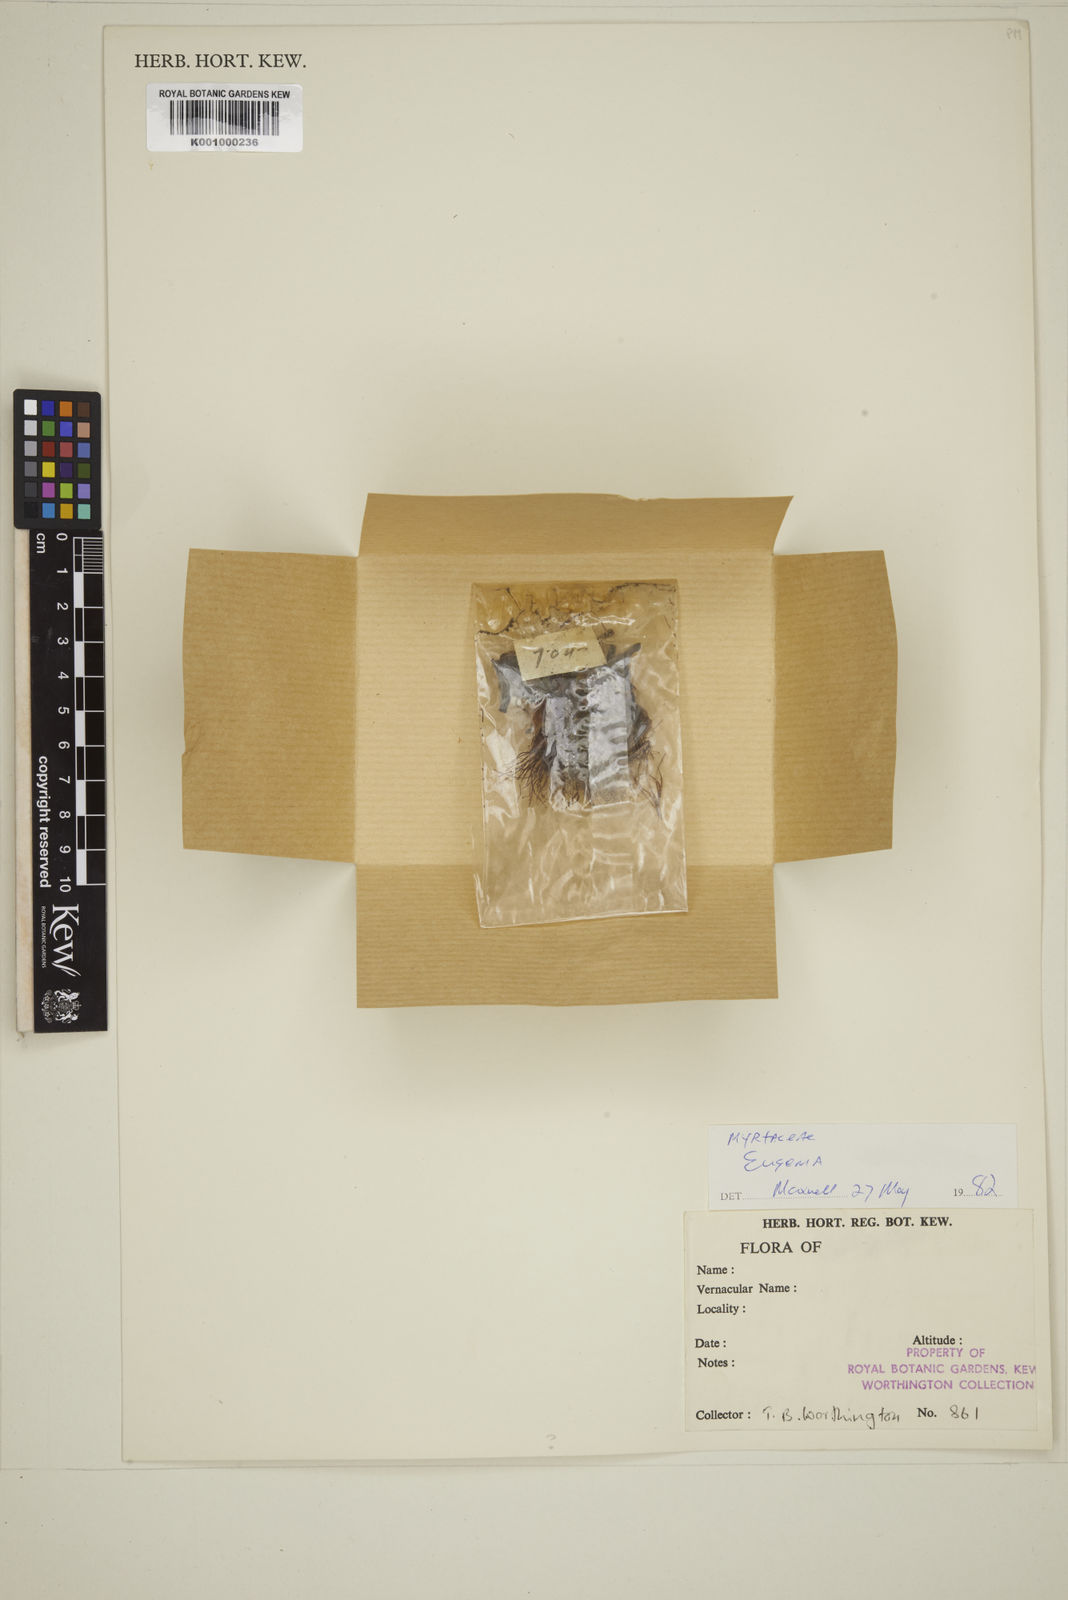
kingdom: Plantae
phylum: Tracheophyta
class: Magnoliopsida
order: Myrtales
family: Myrtaceae
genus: Eugenia
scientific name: Eugenia
